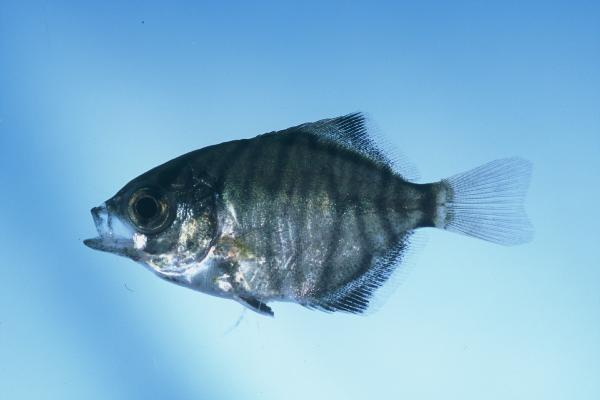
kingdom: Animalia
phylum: Chordata
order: Perciformes
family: Monodactylidae
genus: Monodactylus
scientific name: Monodactylus falciformis
